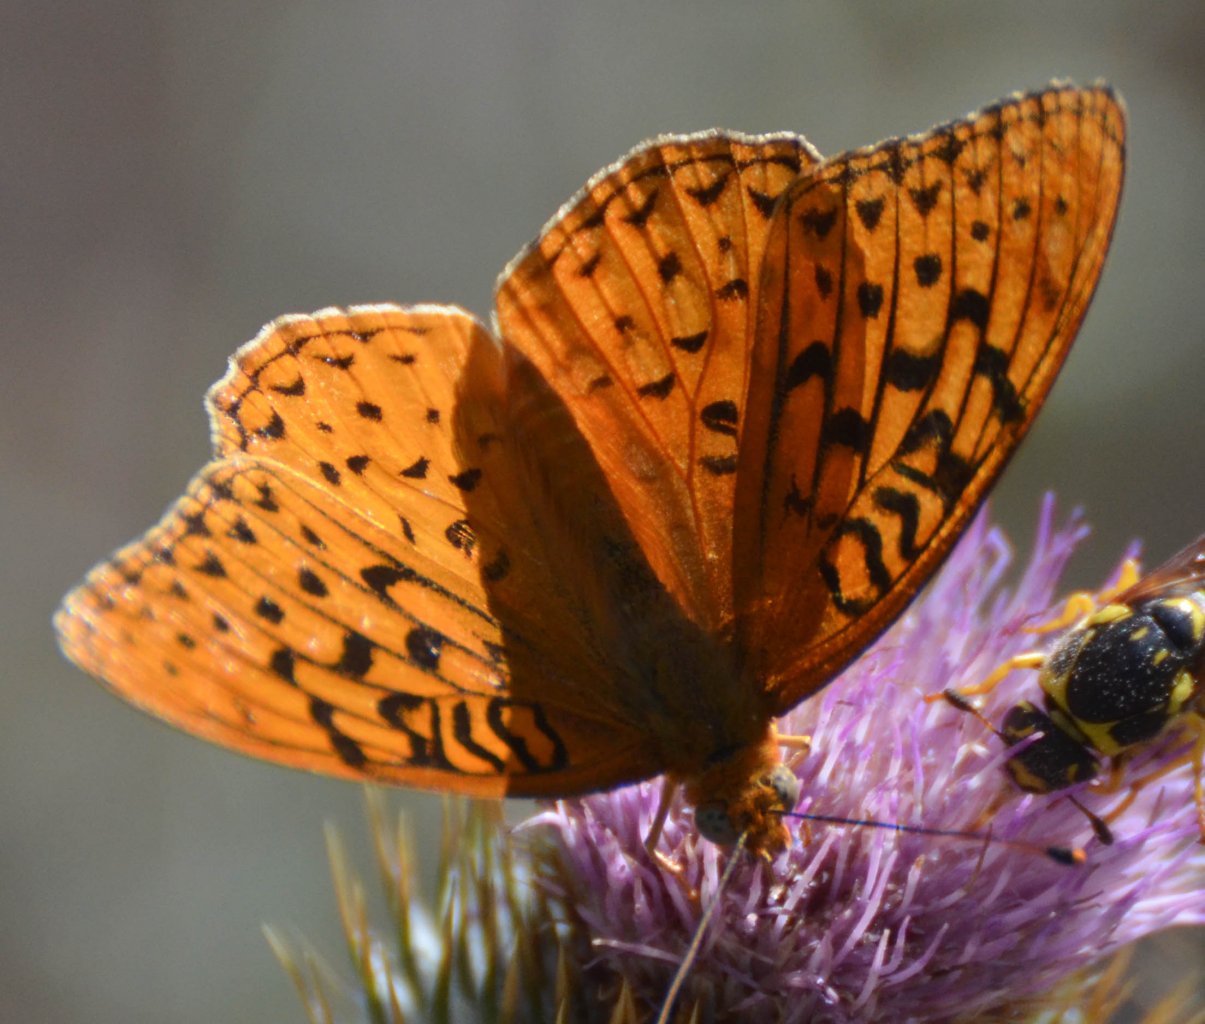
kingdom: Animalia
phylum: Arthropoda
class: Insecta
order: Lepidoptera
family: Nymphalidae
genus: Speyeria
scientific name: Speyeria coronis
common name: Coronis Fritillary
